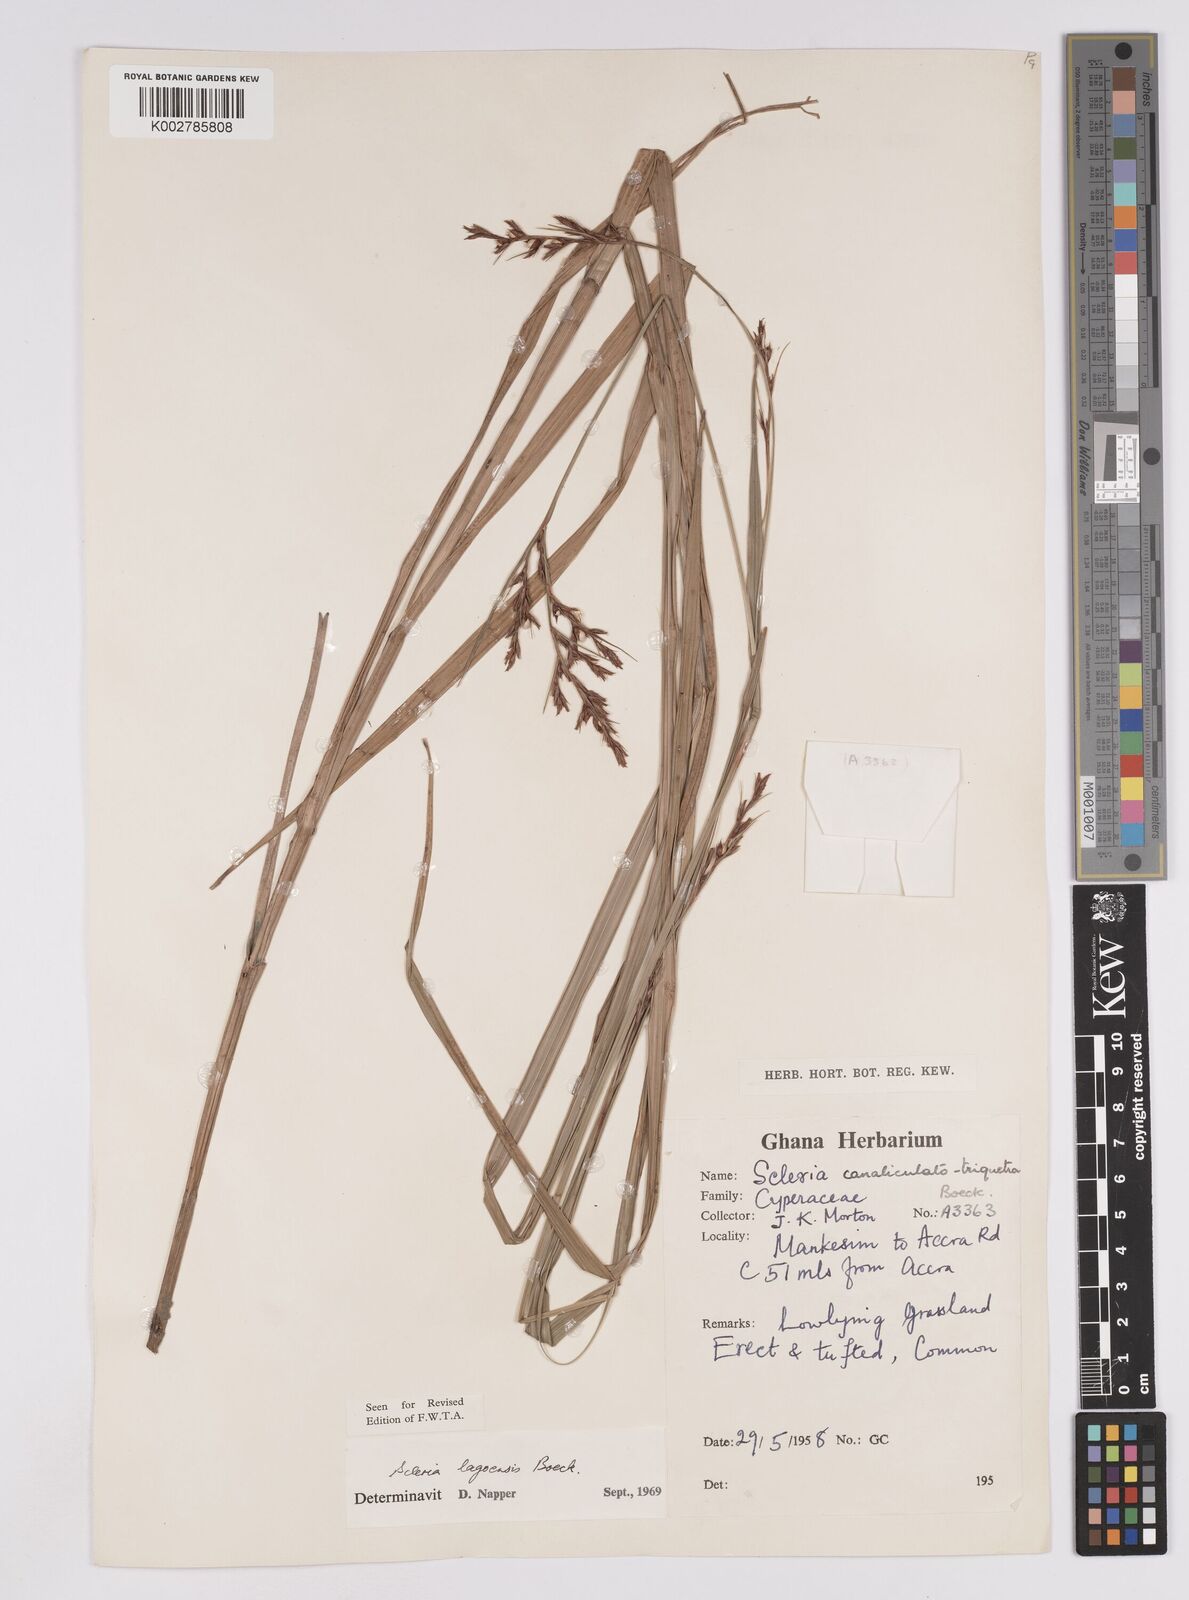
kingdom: Plantae
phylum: Tracheophyta
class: Liliopsida
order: Poales
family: Cyperaceae
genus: Scleria
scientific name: Scleria lagoensis
